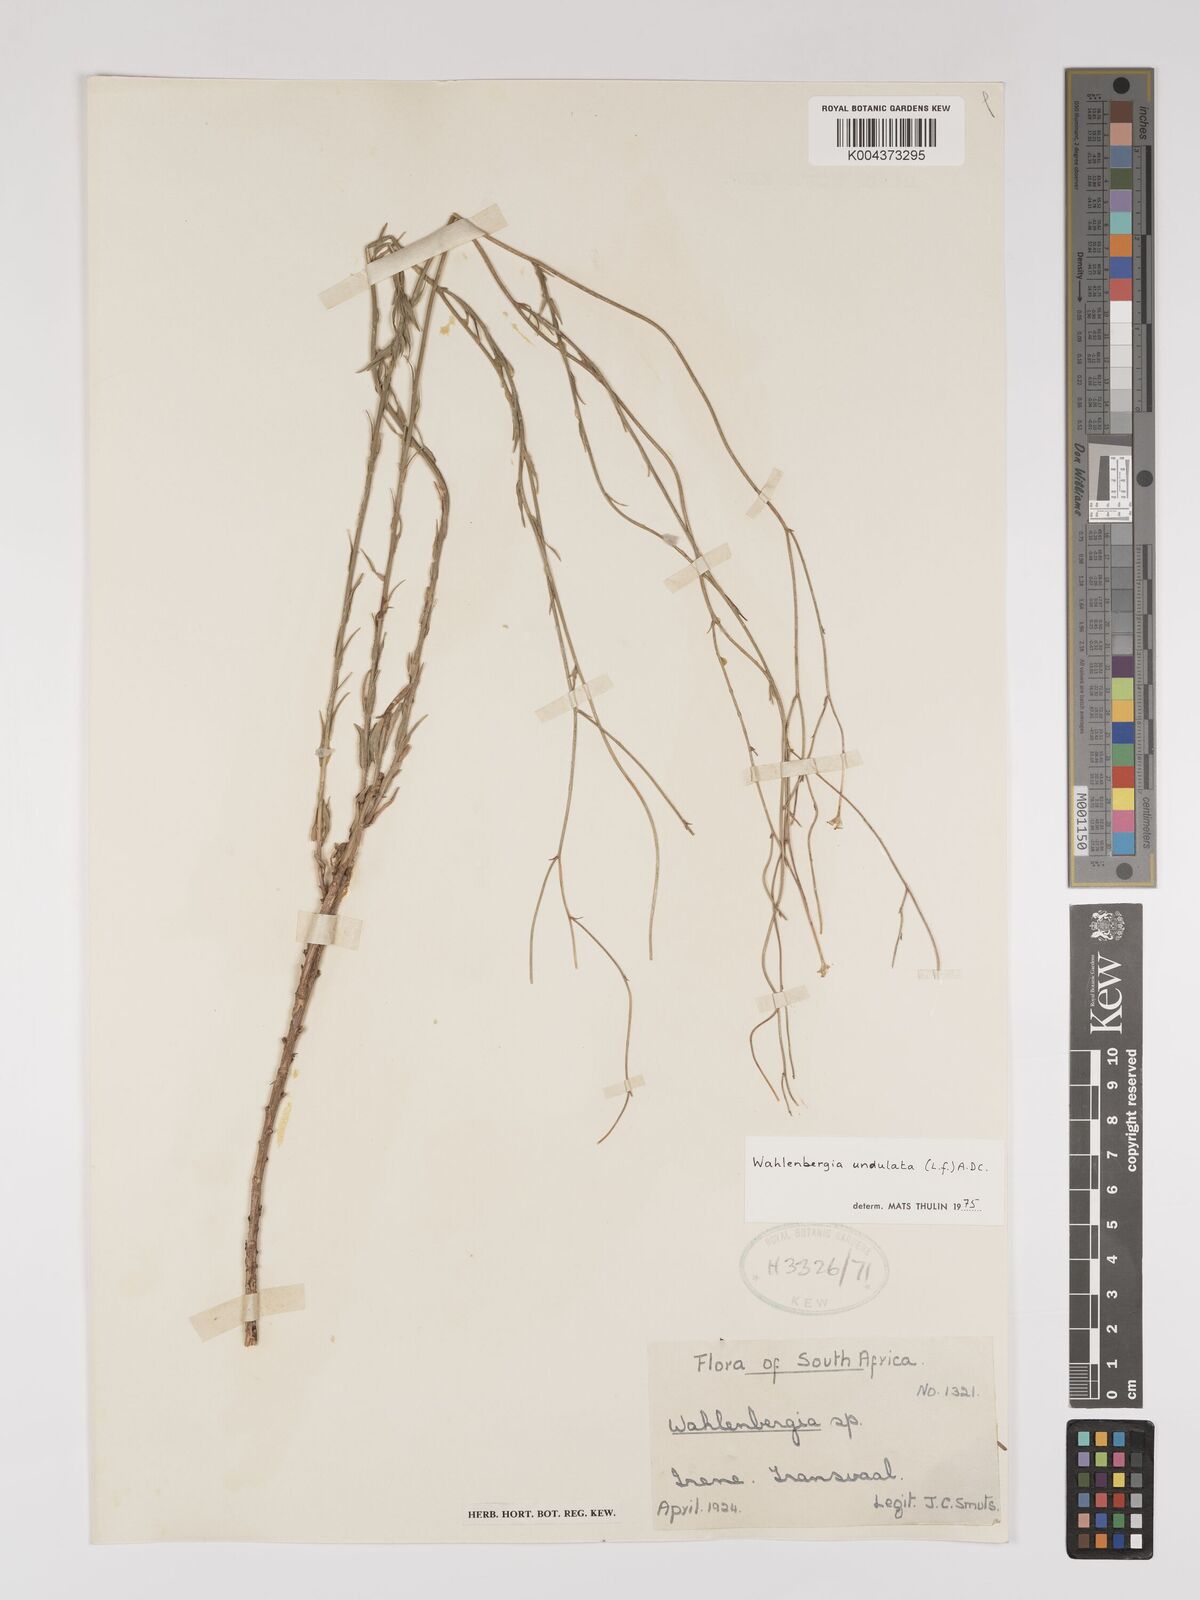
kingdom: Plantae
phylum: Tracheophyta
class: Magnoliopsida
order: Asterales
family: Campanulaceae
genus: Wahlenbergia
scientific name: Wahlenbergia undulata
